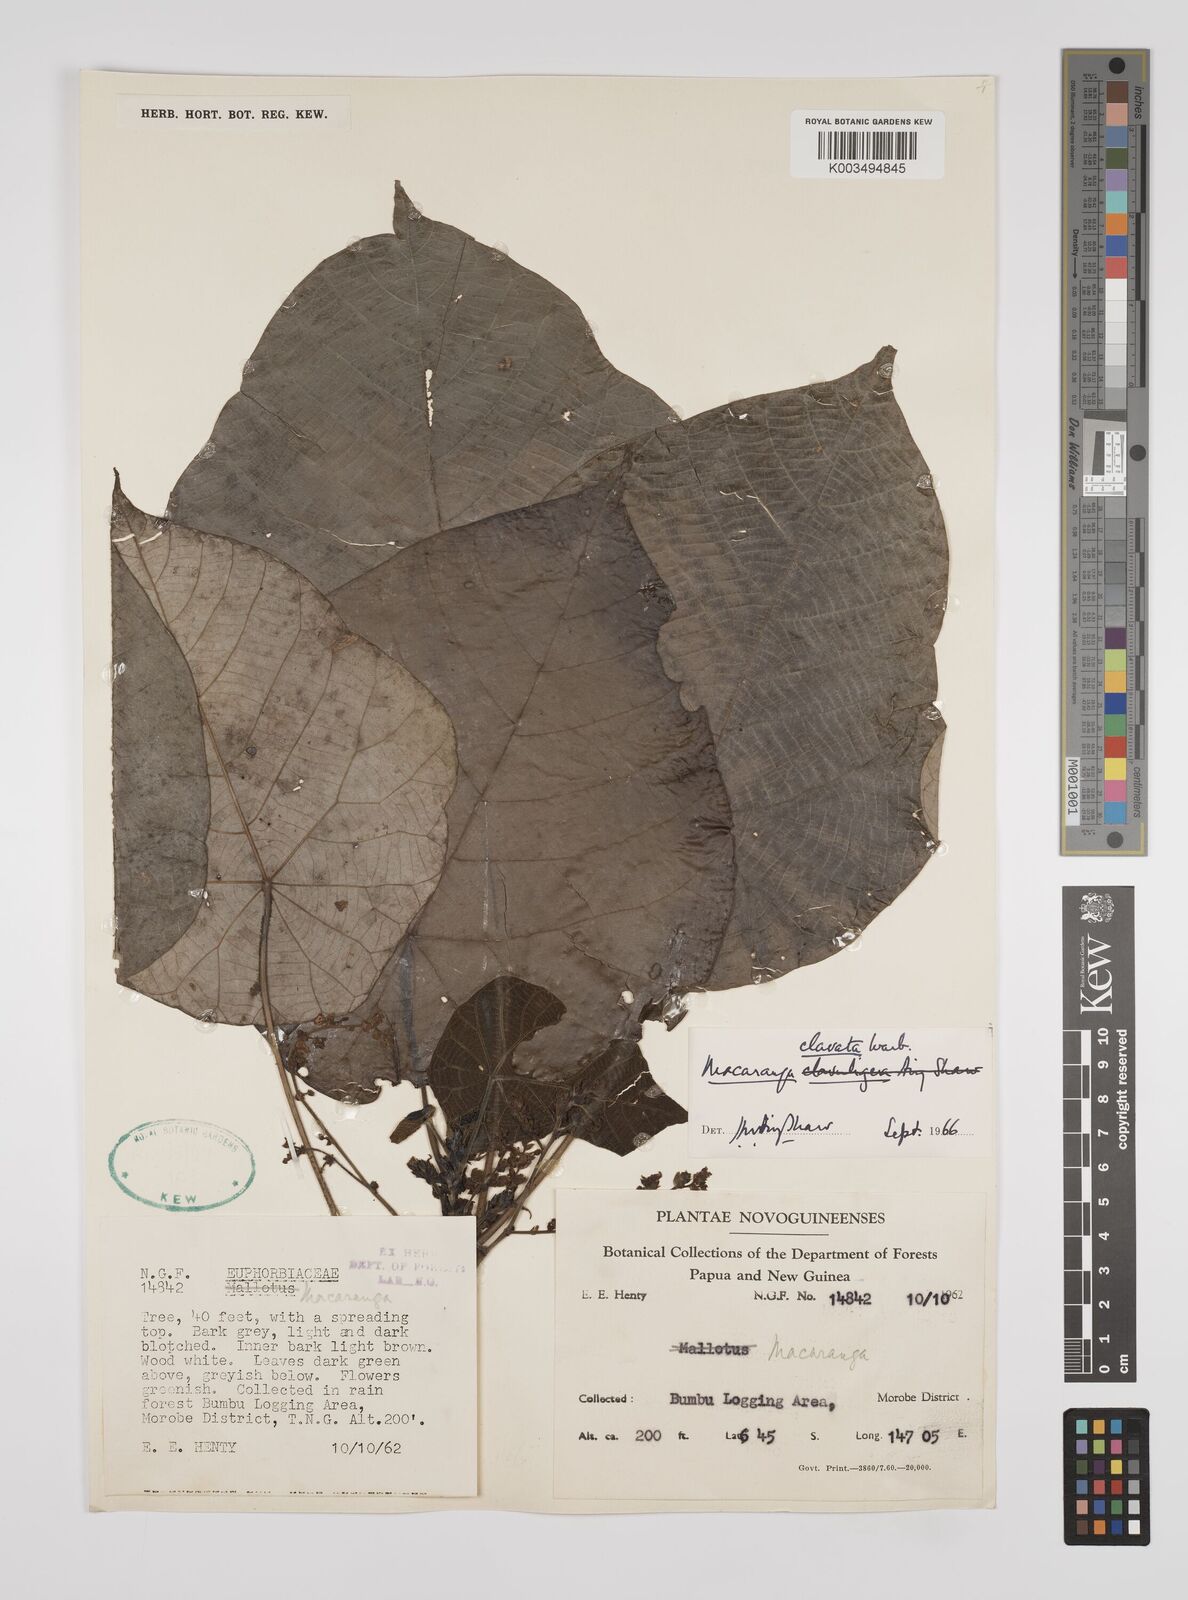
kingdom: Plantae
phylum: Tracheophyta
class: Magnoliopsida
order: Malpighiales
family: Euphorbiaceae
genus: Macaranga
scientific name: Macaranga clavata
